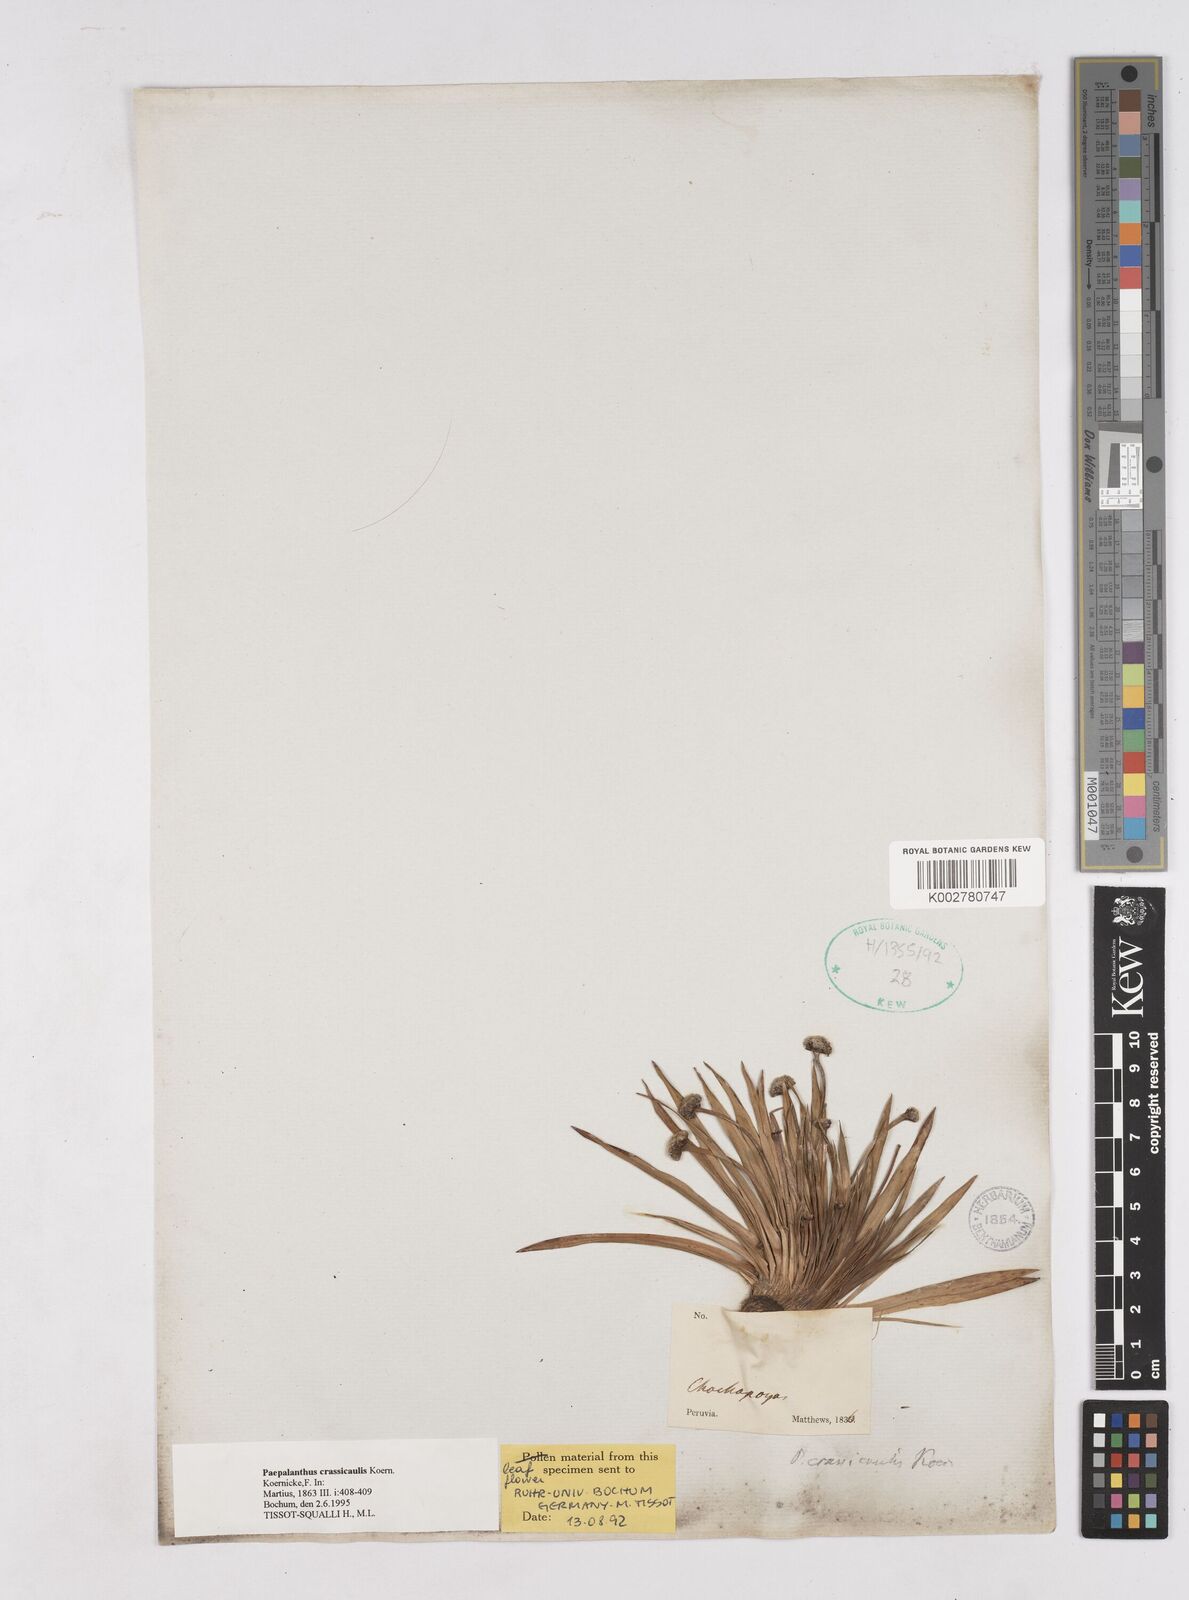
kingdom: Plantae
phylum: Tracheophyta
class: Liliopsida
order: Poales
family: Eriocaulaceae
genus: Paepalanthus
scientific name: Paepalanthus crassicaulis
